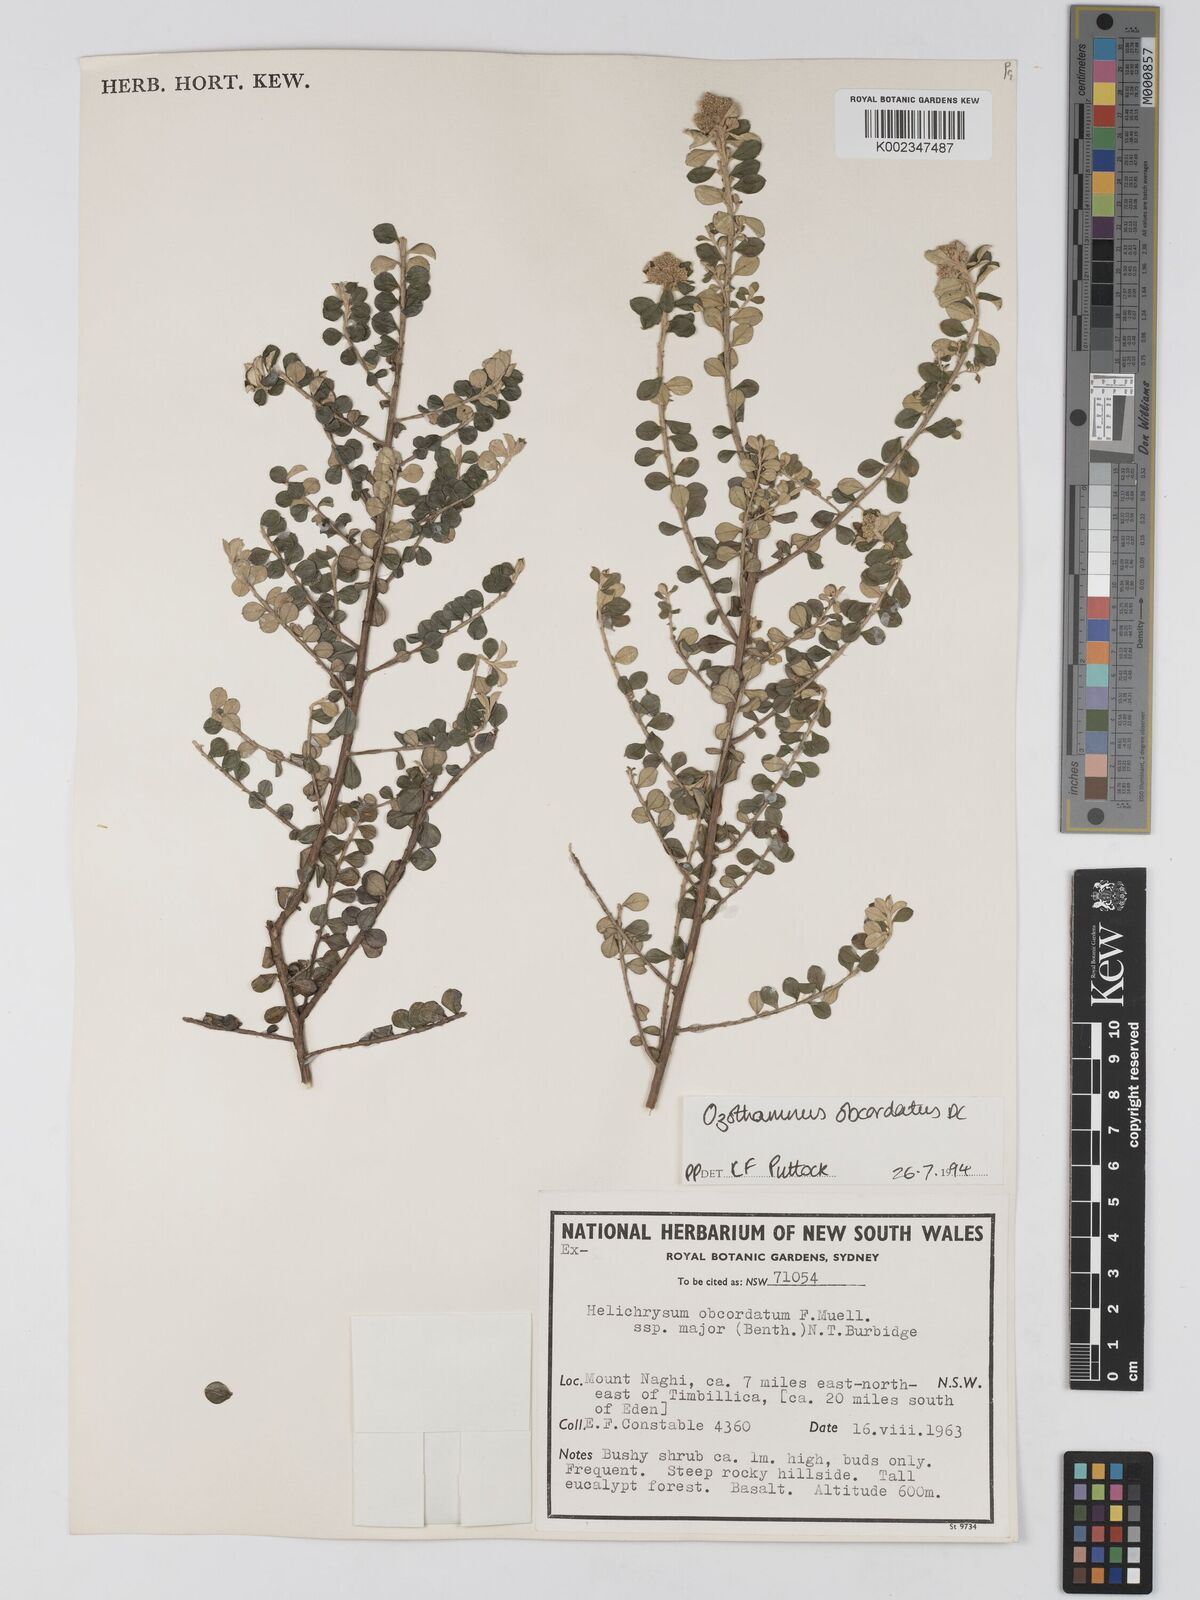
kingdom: Plantae
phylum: Tracheophyta
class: Magnoliopsida
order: Asterales
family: Asteraceae
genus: Ozothamnus
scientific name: Ozothamnus obcordatus
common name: Grey everlasting
